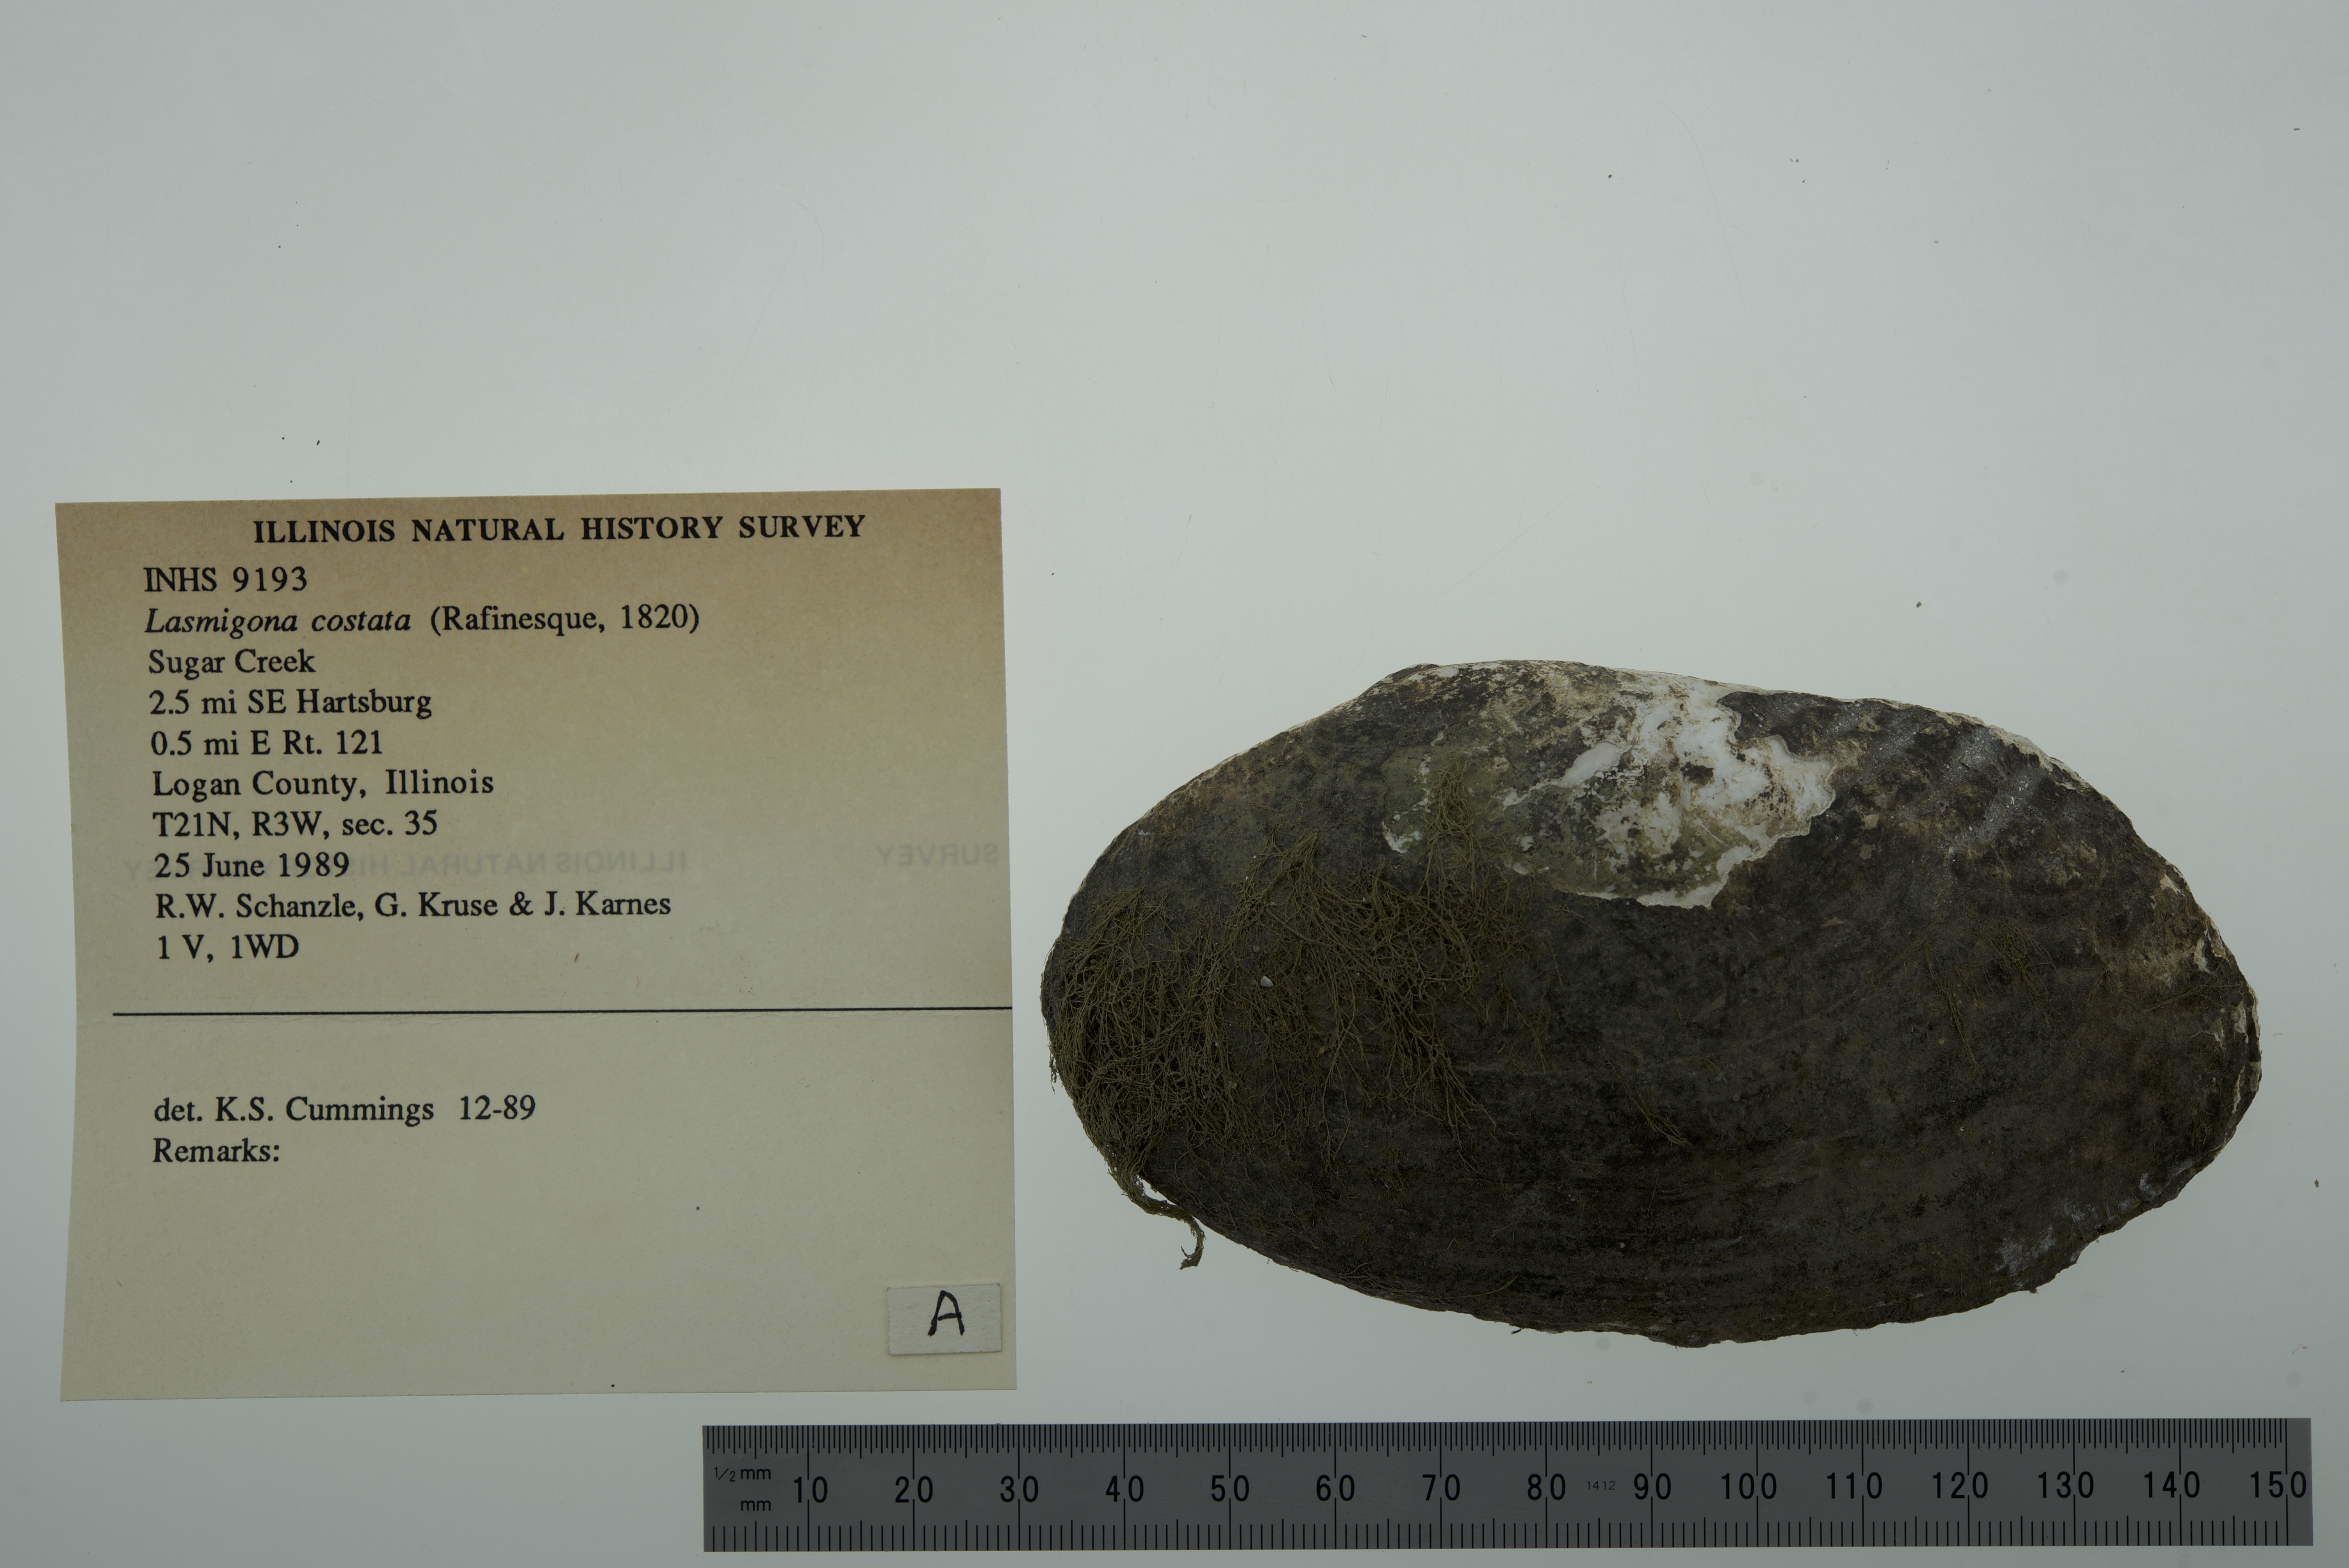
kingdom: Animalia
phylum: Mollusca
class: Bivalvia
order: Unionida
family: Unionidae
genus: Lasmigona
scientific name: Lasmigona costata
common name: Flutedshell
